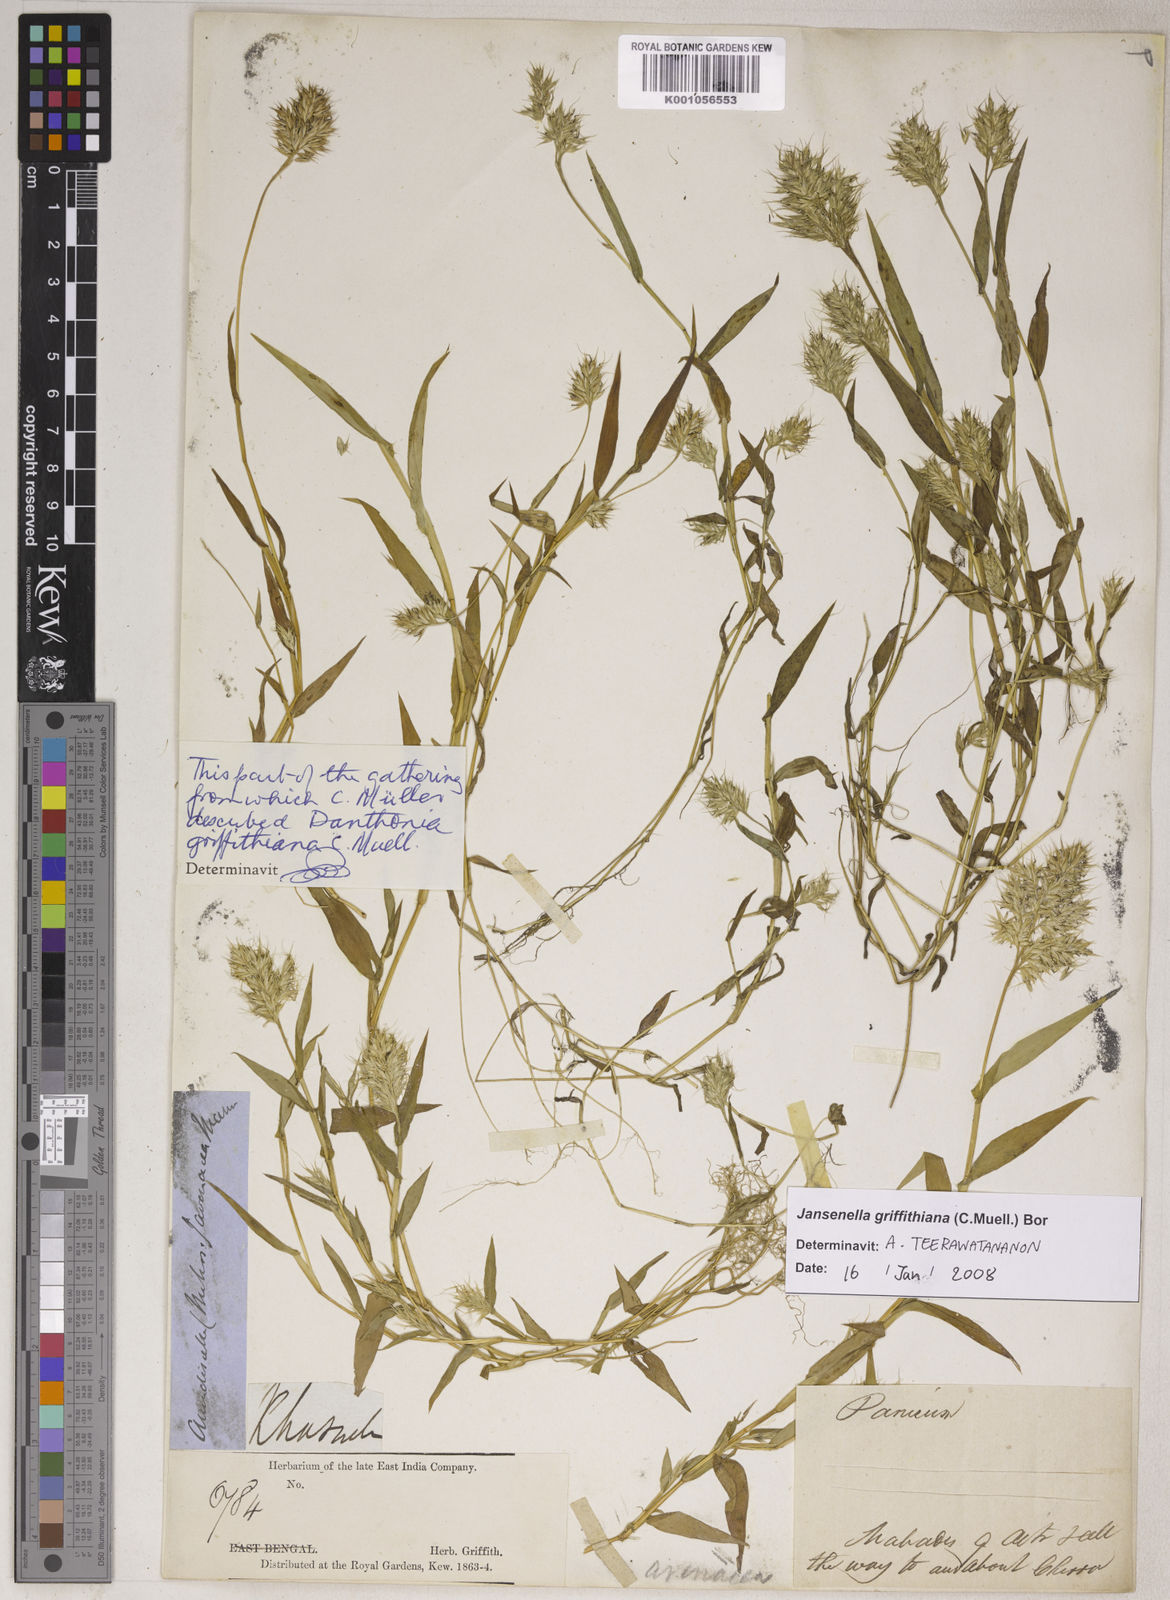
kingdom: Plantae
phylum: Tracheophyta
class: Liliopsida
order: Poales
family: Poaceae
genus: Jansenella
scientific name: Jansenella griffithiana
